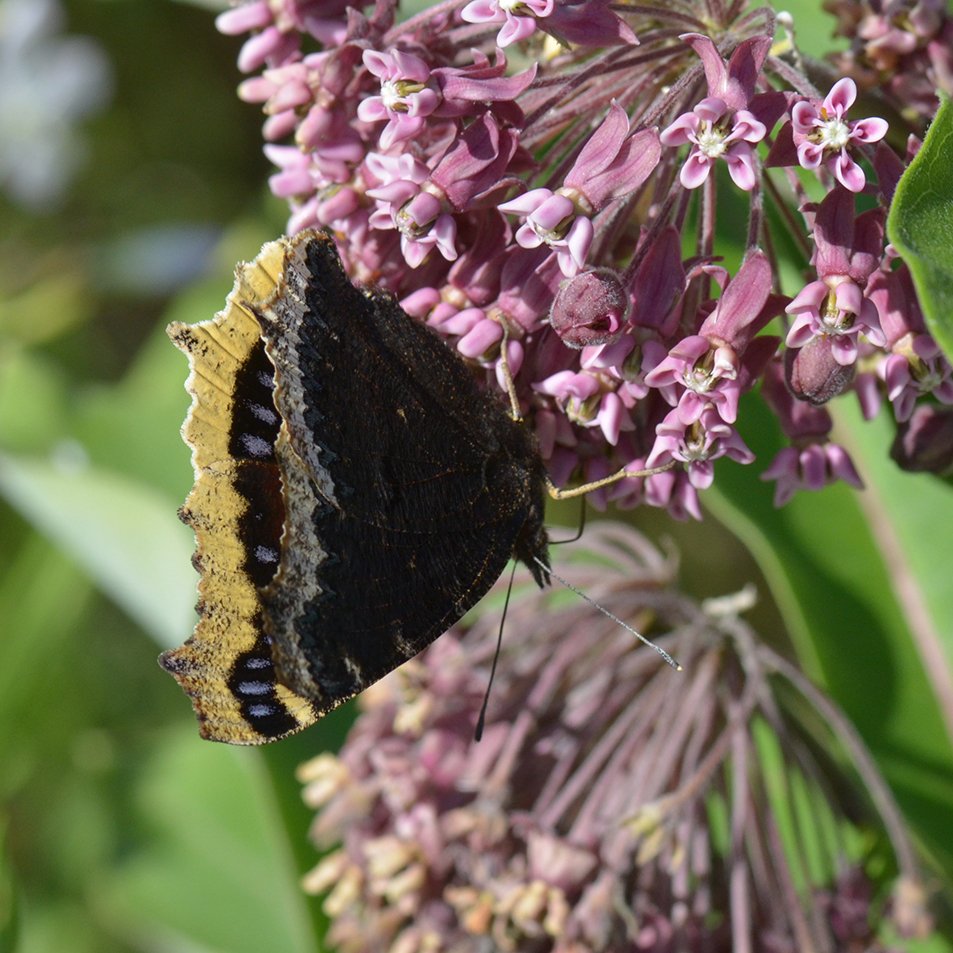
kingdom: Animalia
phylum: Arthropoda
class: Insecta
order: Lepidoptera
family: Nymphalidae
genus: Nymphalis
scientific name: Nymphalis antiopa
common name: Mourning Cloak
